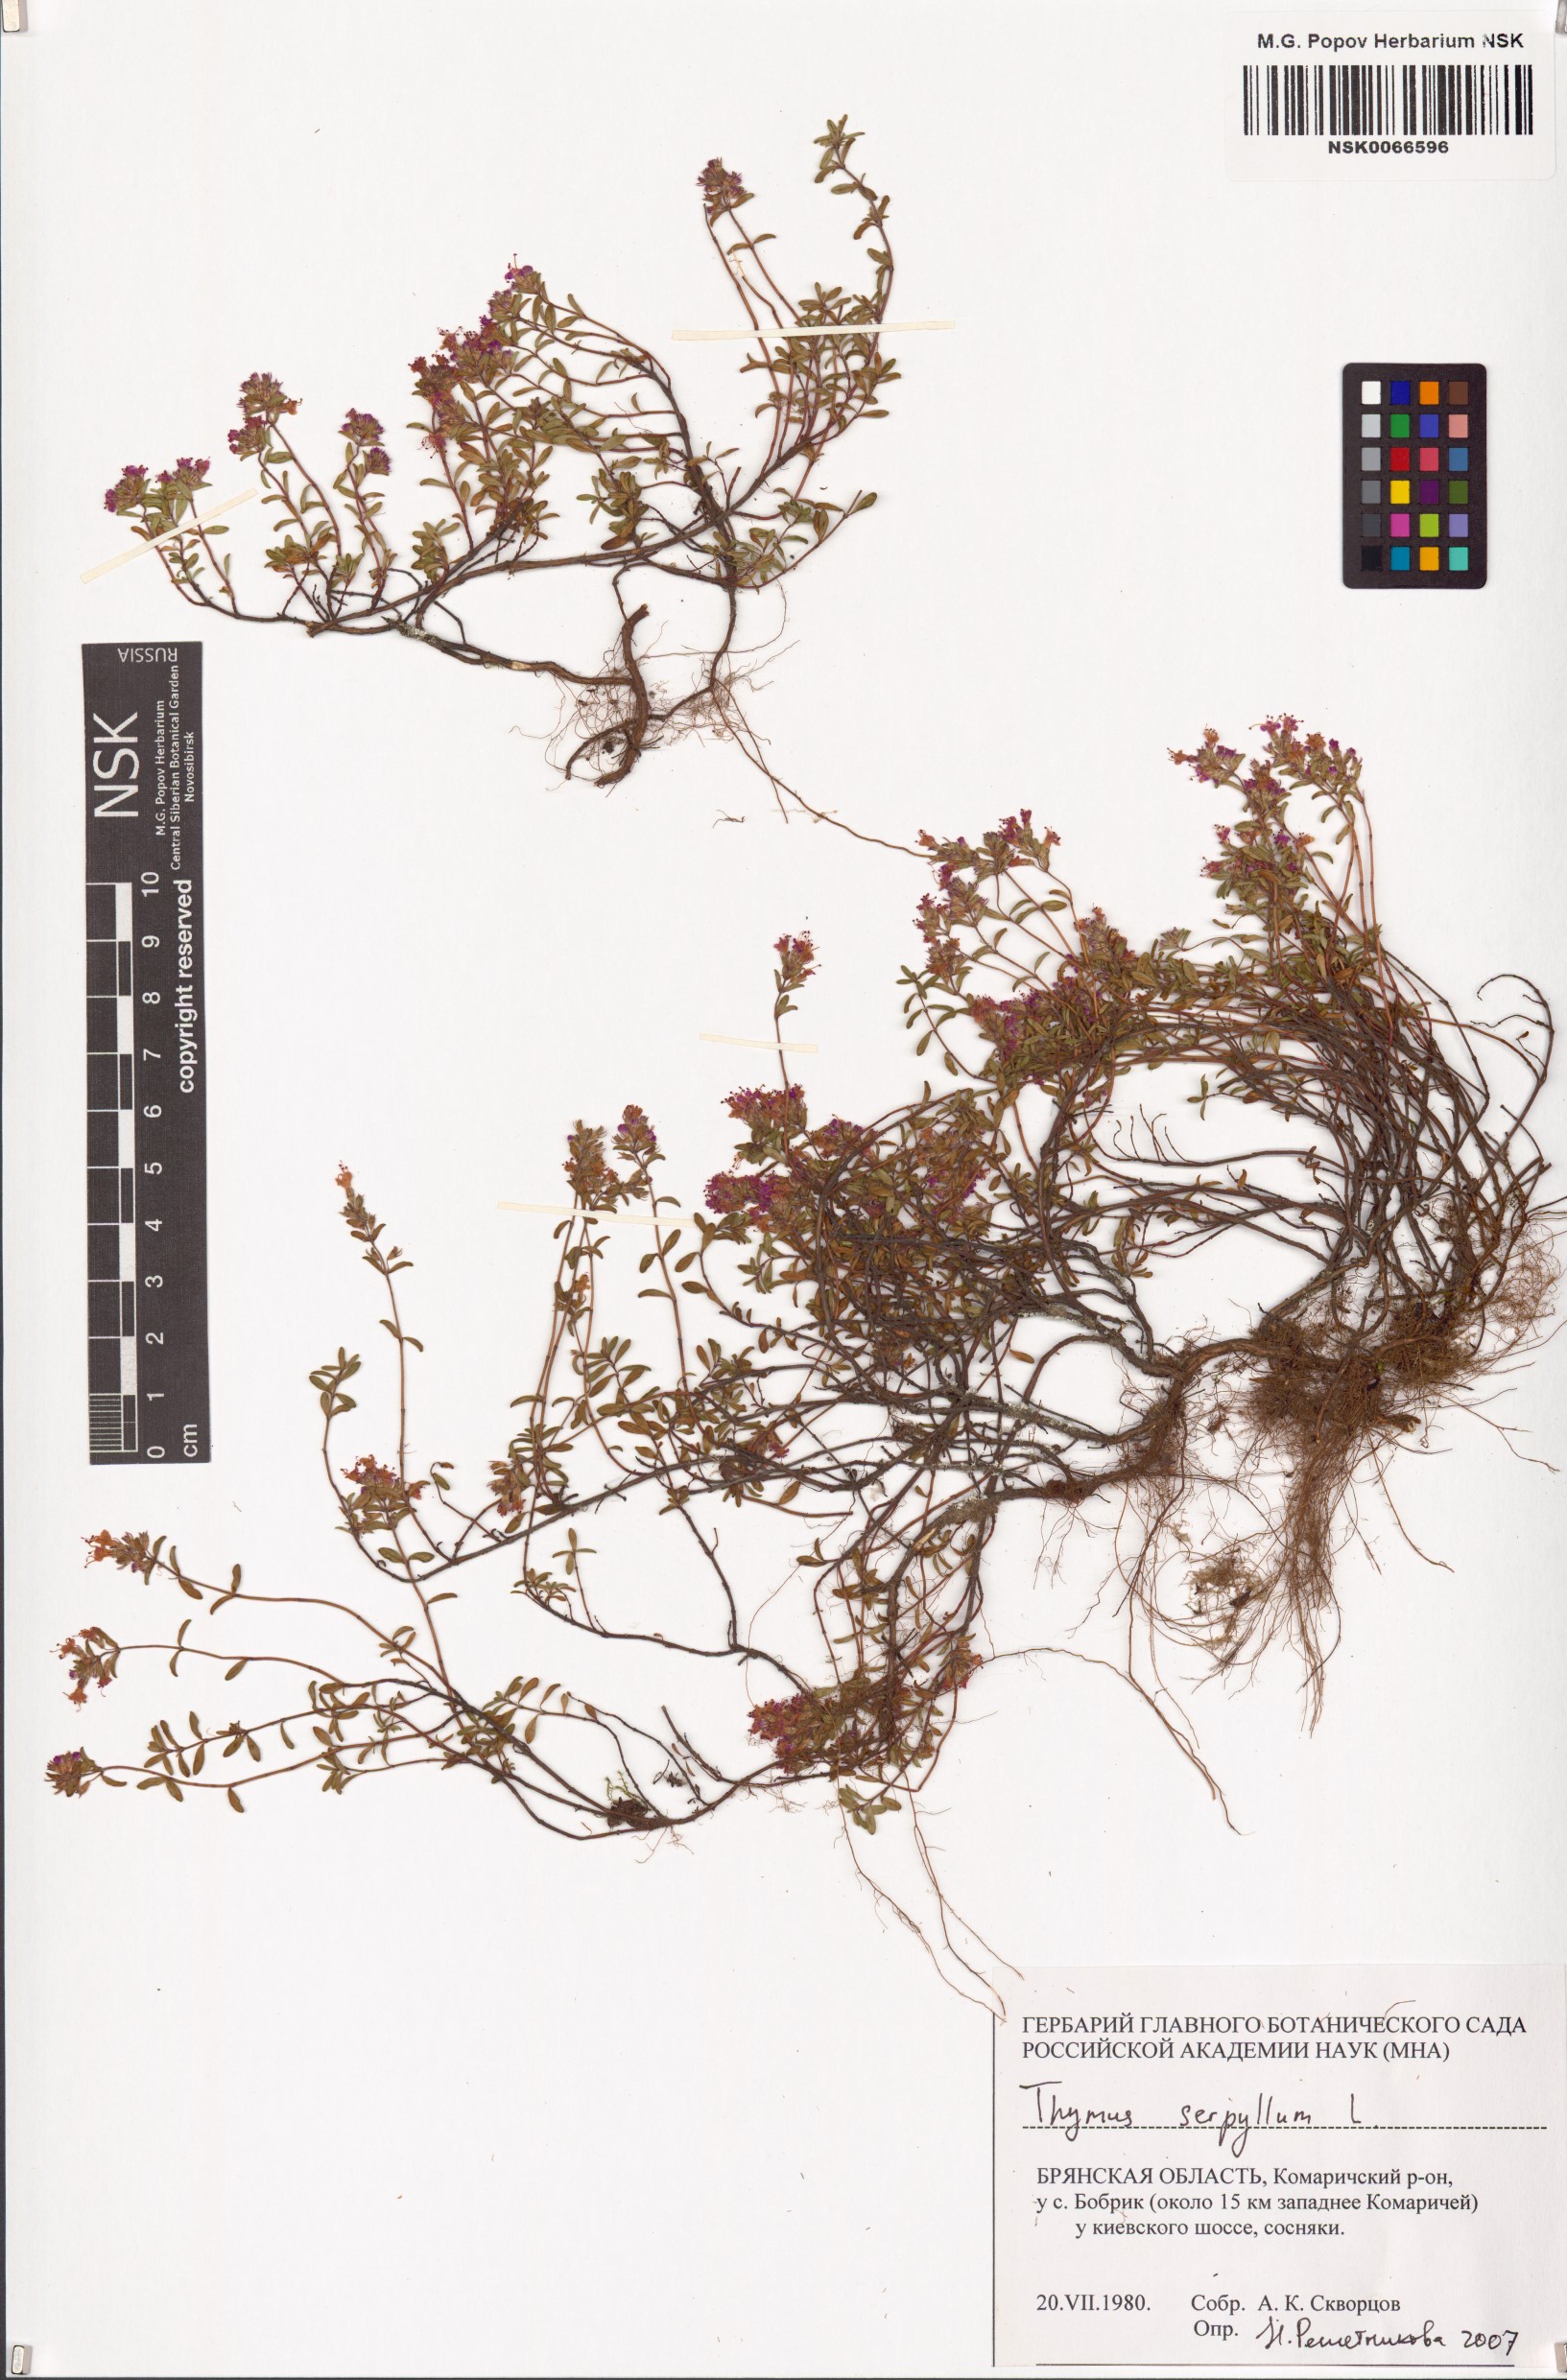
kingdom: Plantae
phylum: Tracheophyta
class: Magnoliopsida
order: Lamiales
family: Lamiaceae
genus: Thymus
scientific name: Thymus serpyllum
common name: Breckland thyme
